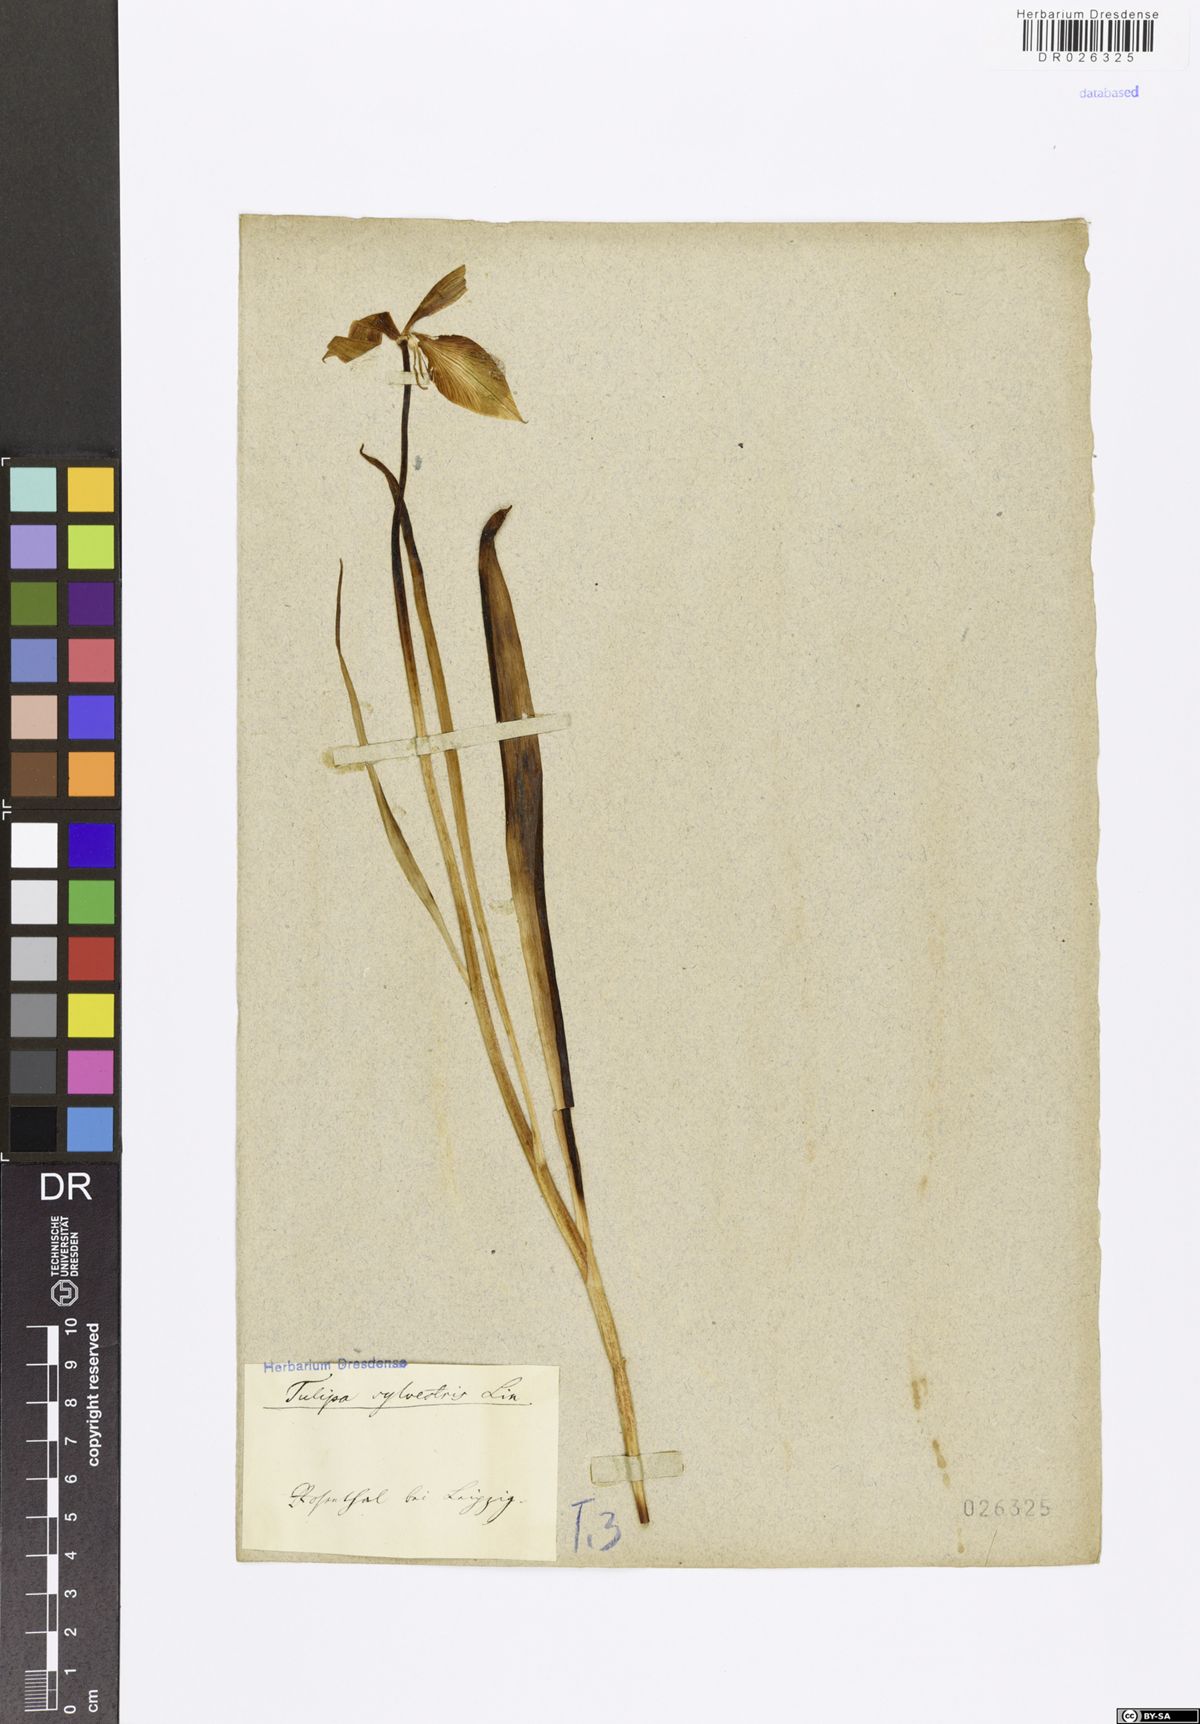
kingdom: Plantae
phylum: Tracheophyta
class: Liliopsida
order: Liliales
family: Liliaceae
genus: Tulipa
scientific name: Tulipa sylvestris
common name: Wild tulip
